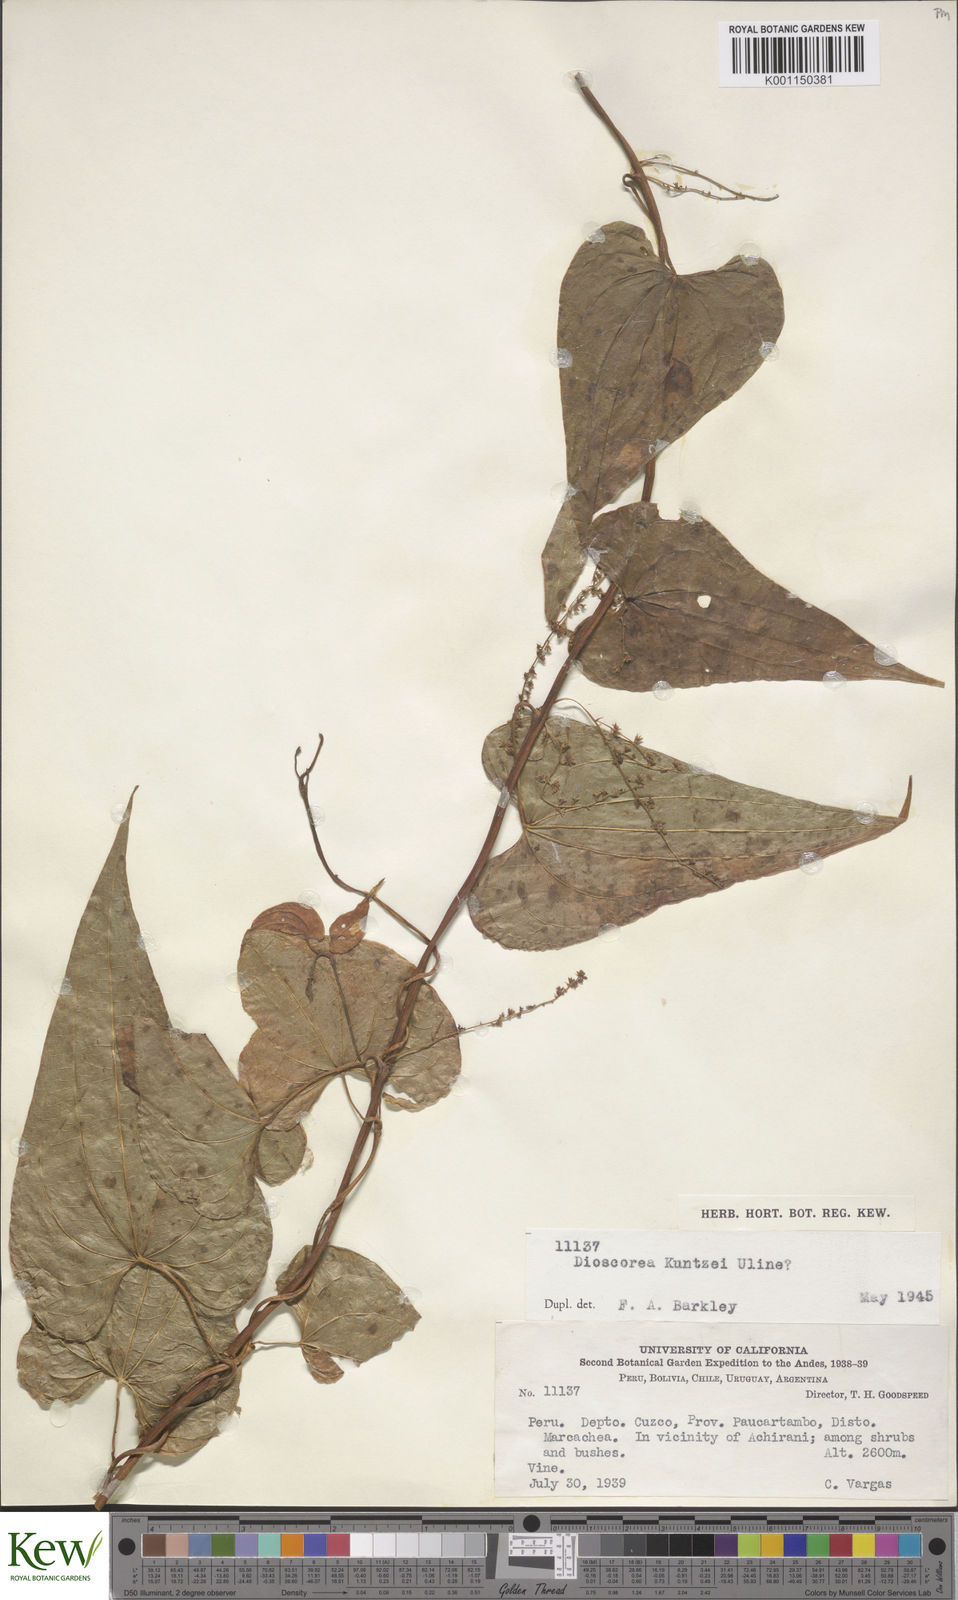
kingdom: Plantae
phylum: Tracheophyta
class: Liliopsida
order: Dioscoreales
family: Dioscoreaceae
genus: Dioscorea
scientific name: Dioscorea kuntzei
